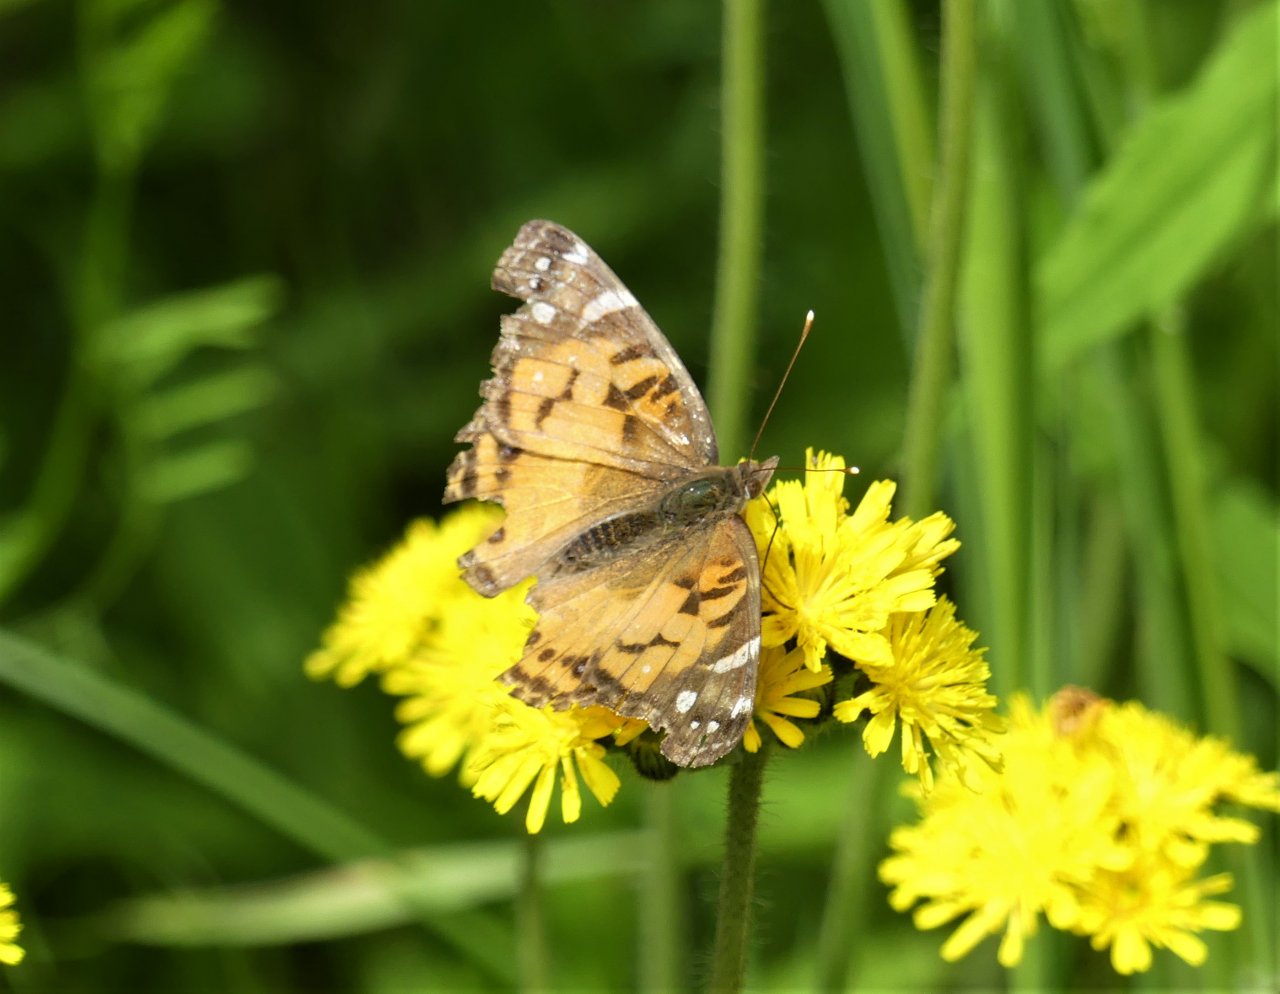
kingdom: Animalia
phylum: Arthropoda
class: Insecta
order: Lepidoptera
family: Nymphalidae
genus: Vanessa
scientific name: Vanessa virginiensis
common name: American Lady
